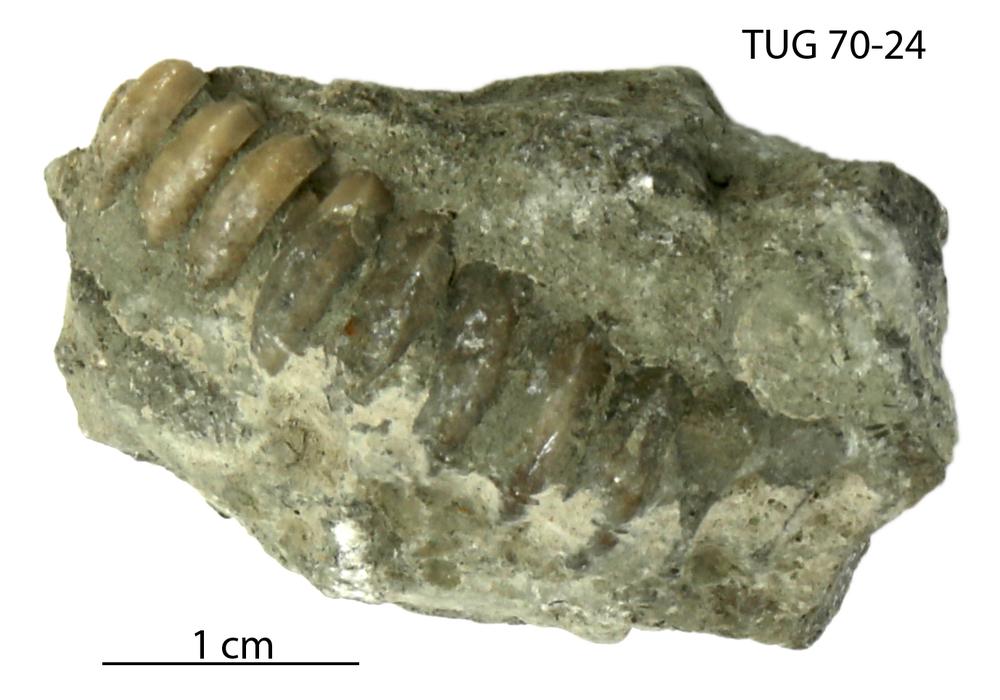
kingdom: Animalia
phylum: Mollusca
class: Cephalopoda
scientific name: Cephalopoda
